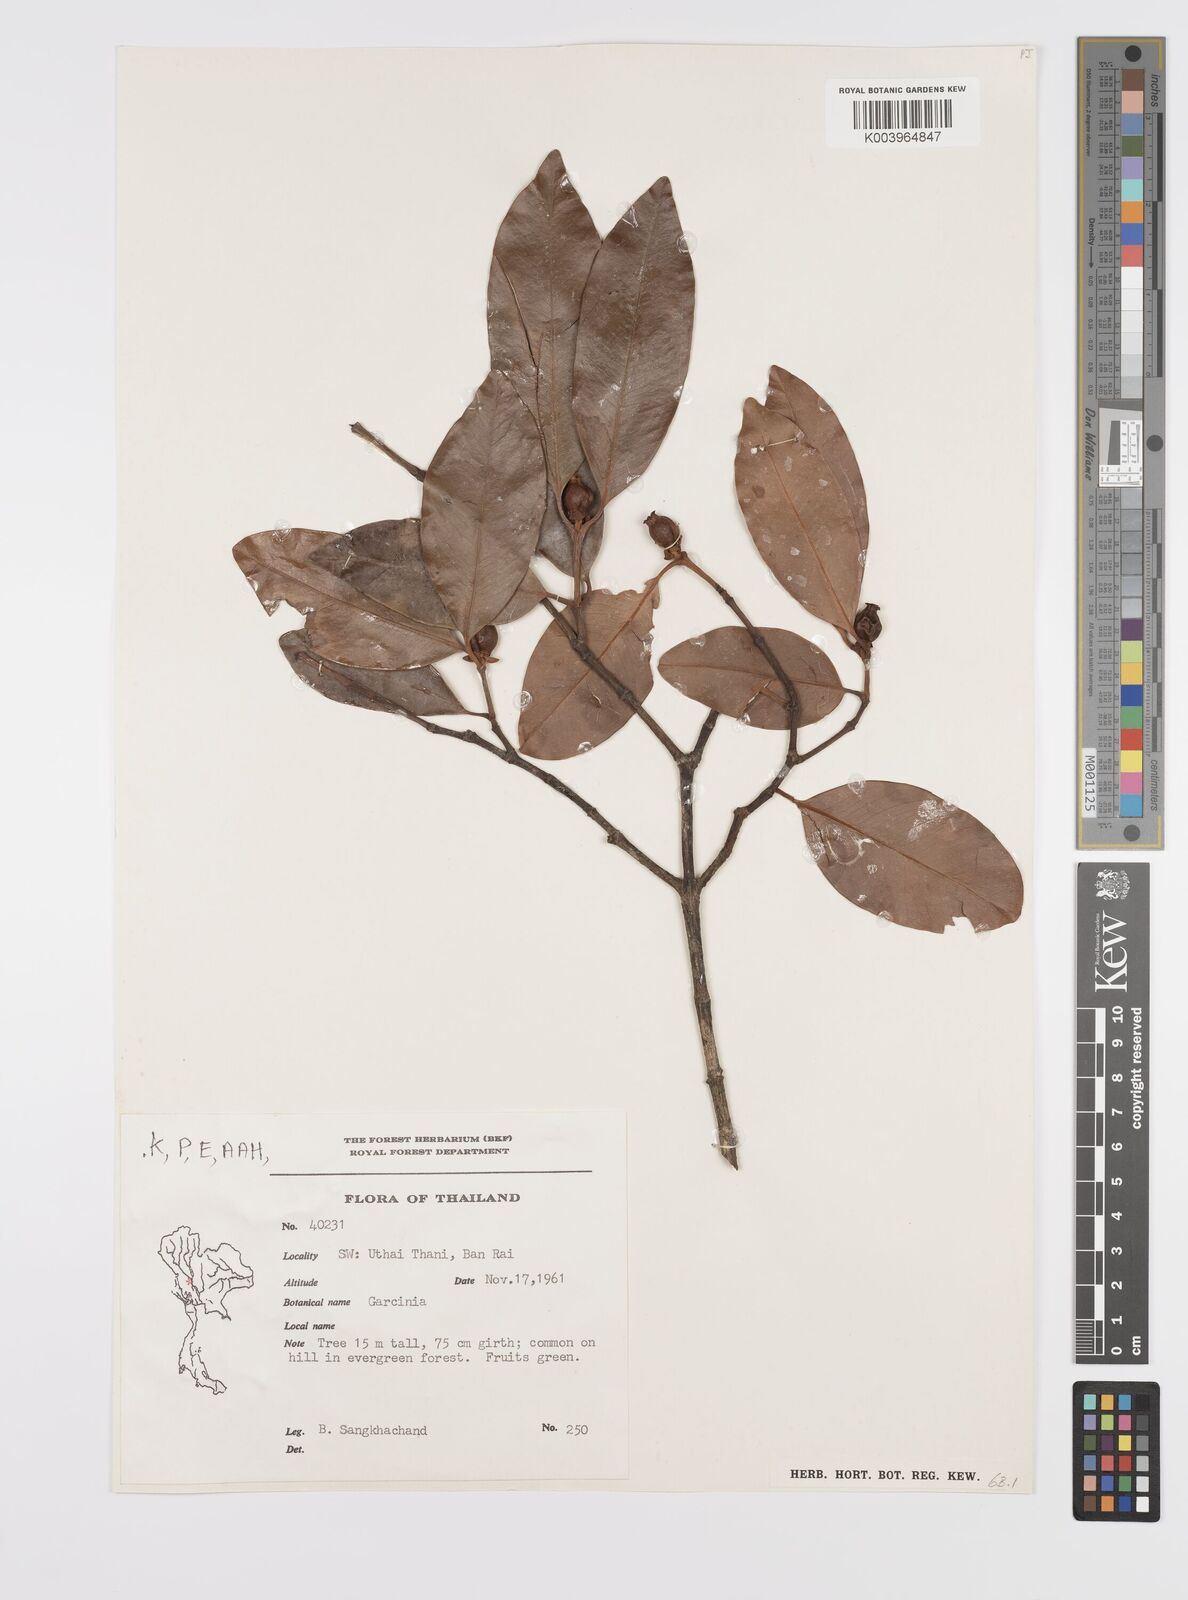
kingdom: Plantae
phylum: Tracheophyta
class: Magnoliopsida
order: Malpighiales
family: Clusiaceae
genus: Garcinia
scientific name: Garcinia
